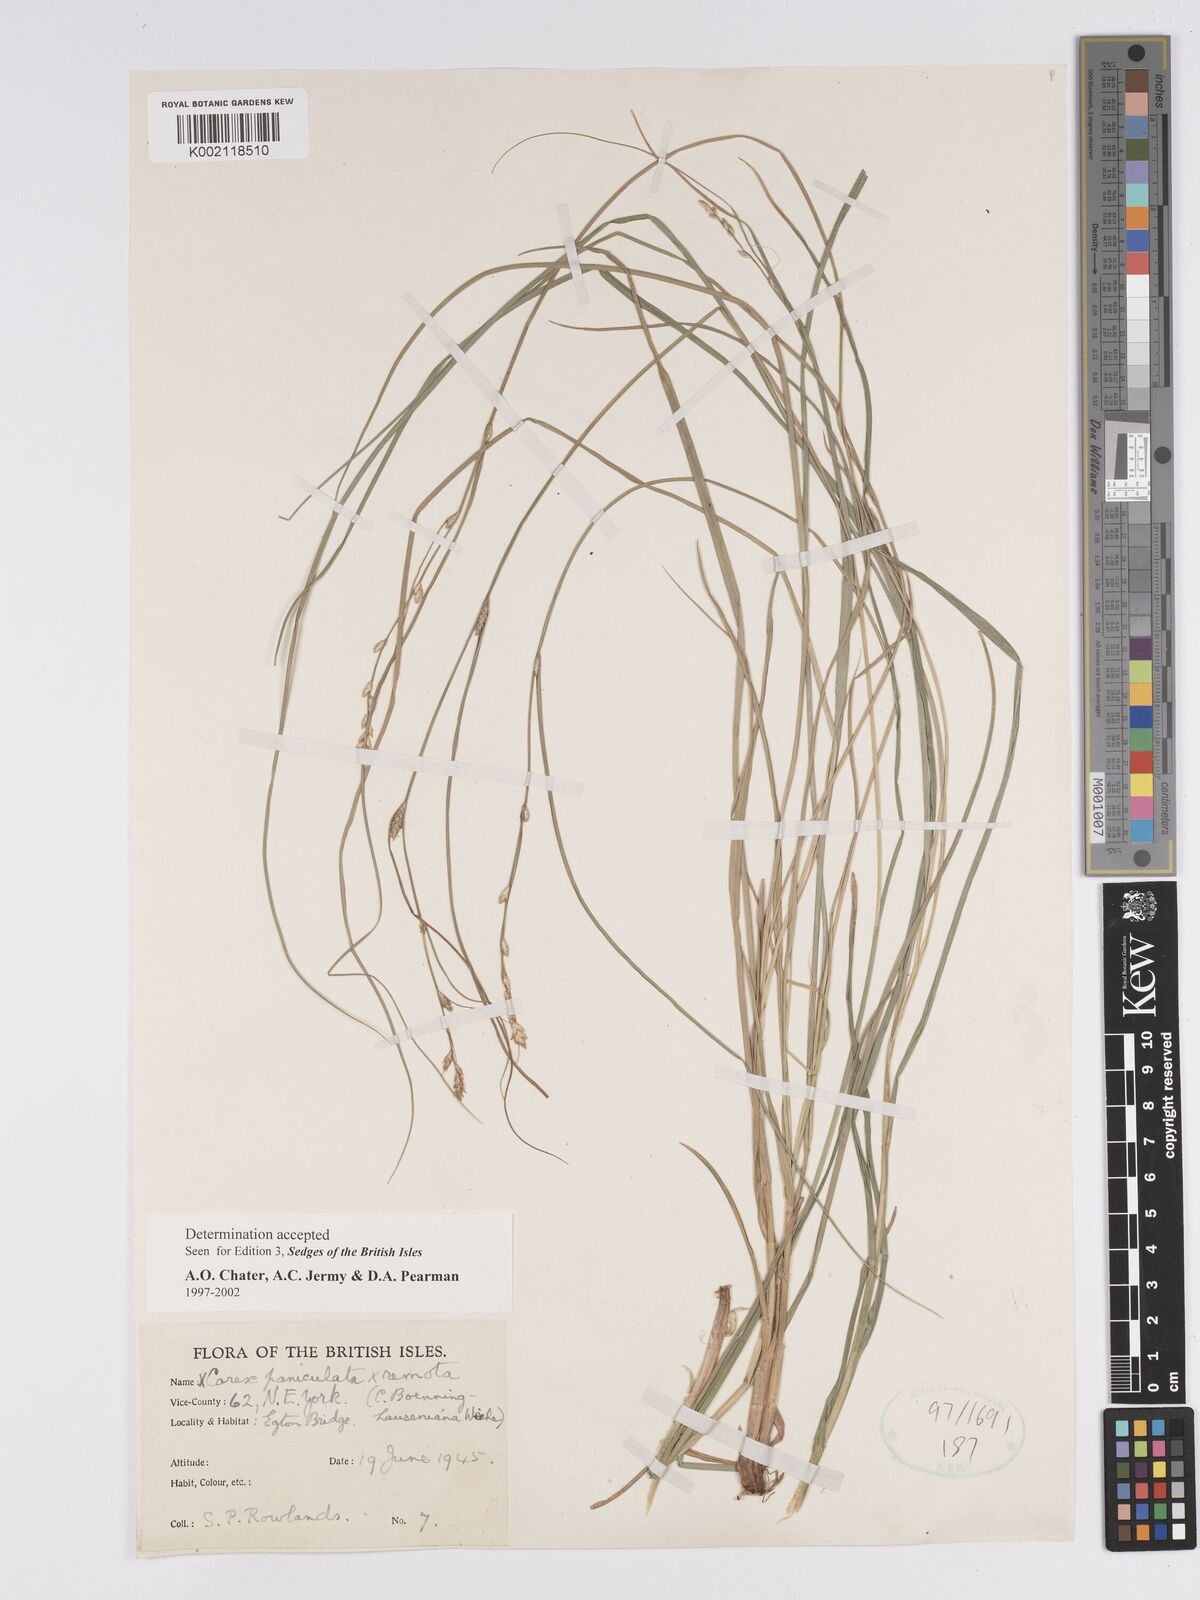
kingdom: Plantae
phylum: Tracheophyta
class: Liliopsida
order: Poales
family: Cyperaceae
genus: Carex
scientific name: Carex boenninghausiana
